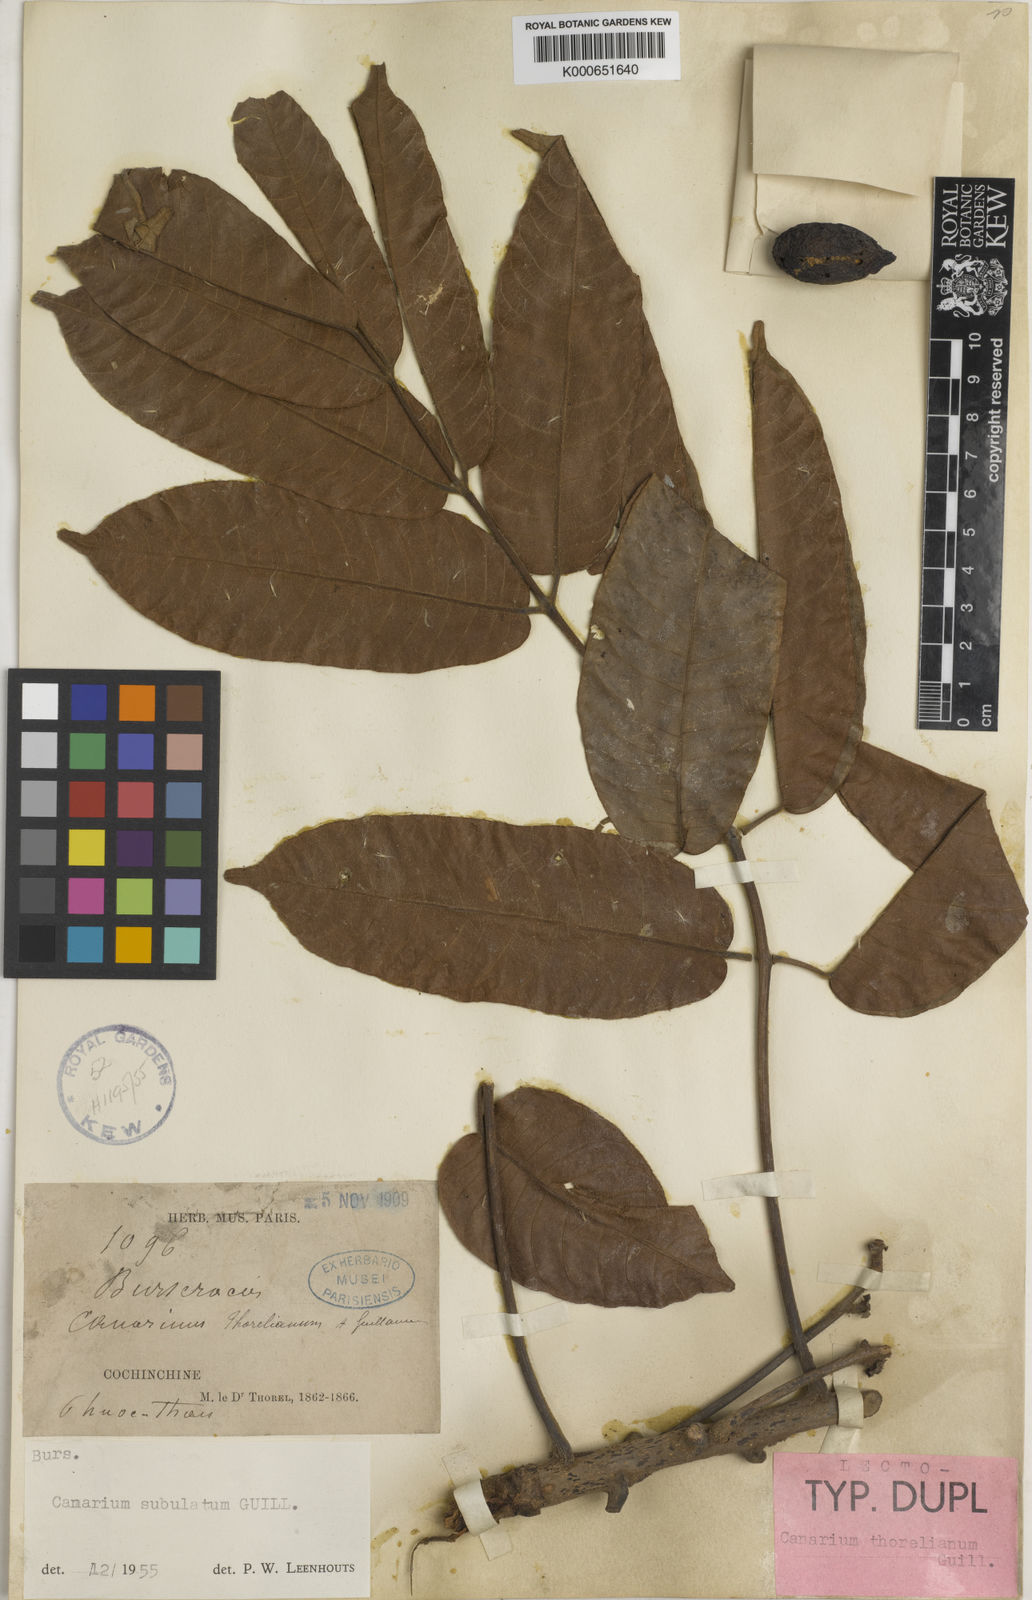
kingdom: Plantae
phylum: Tracheophyta
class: Magnoliopsida
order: Sapindales
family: Burseraceae
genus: Canarium
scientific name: Canarium subulatum
